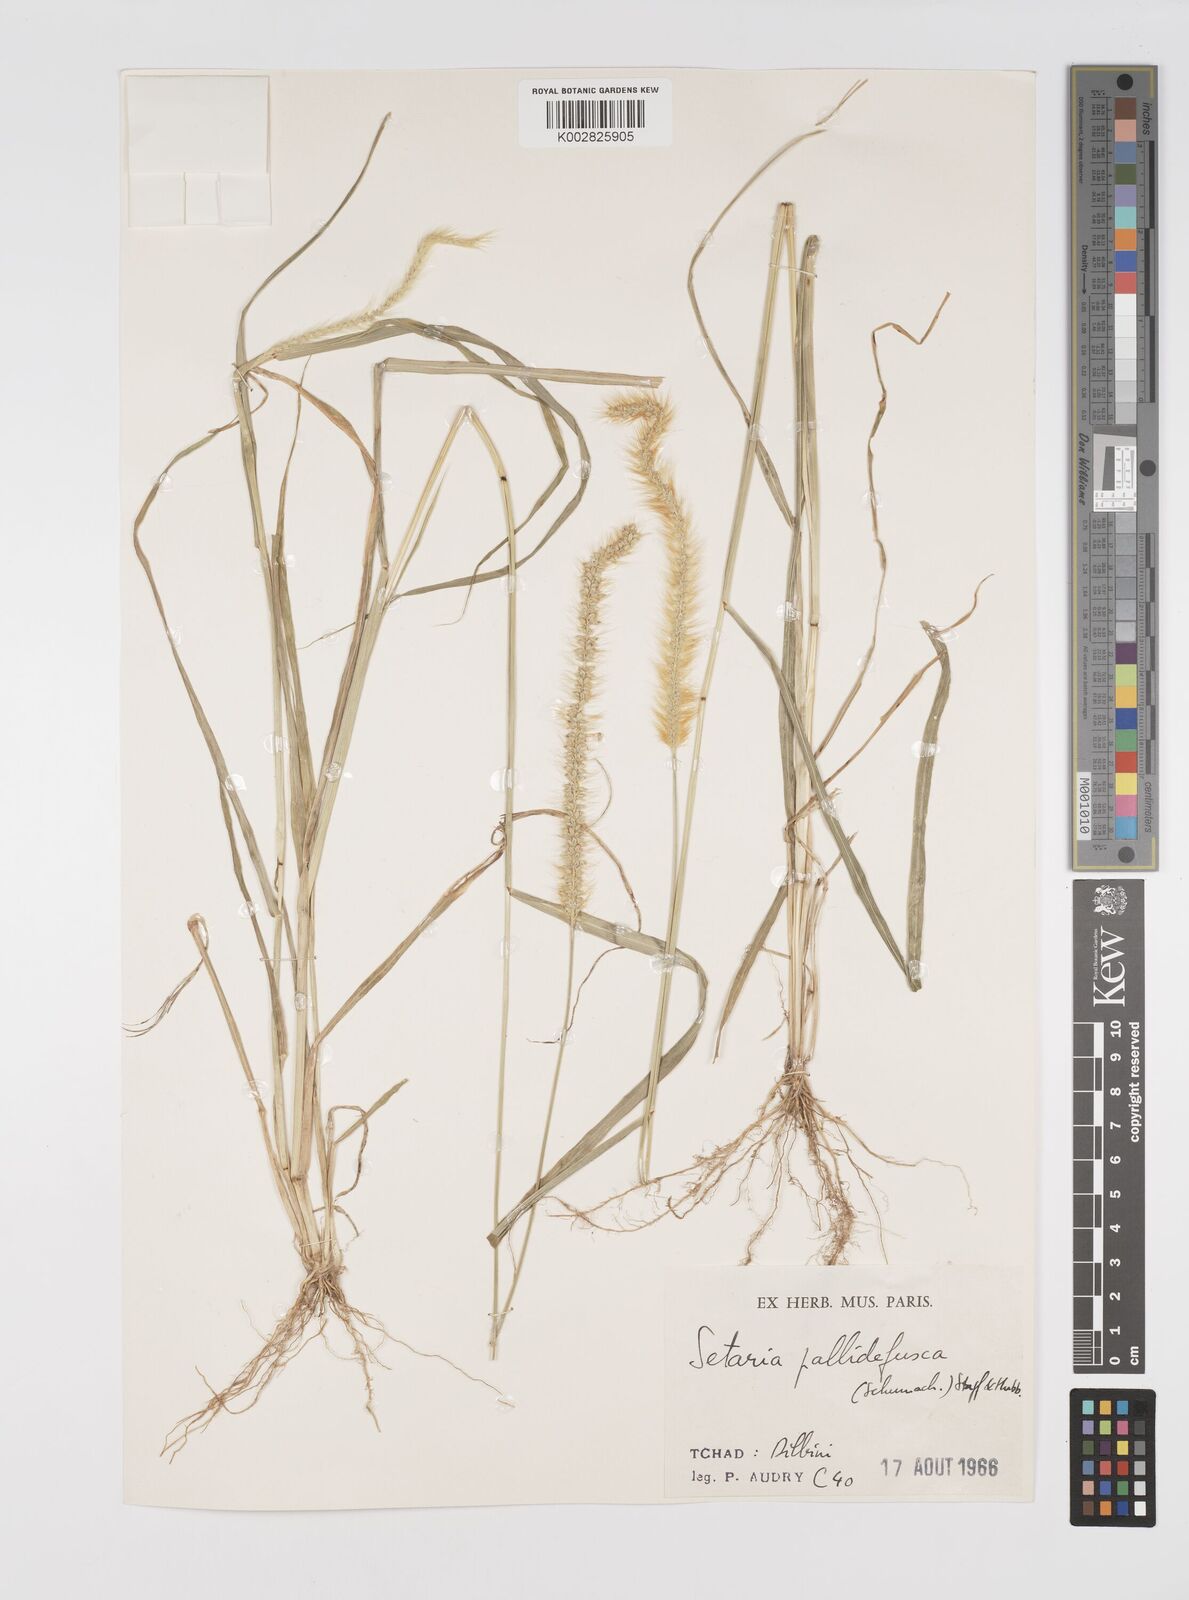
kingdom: Plantae
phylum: Tracheophyta
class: Liliopsida
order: Poales
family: Poaceae
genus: Setaria
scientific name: Setaria pumila
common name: Yellow bristle-grass
